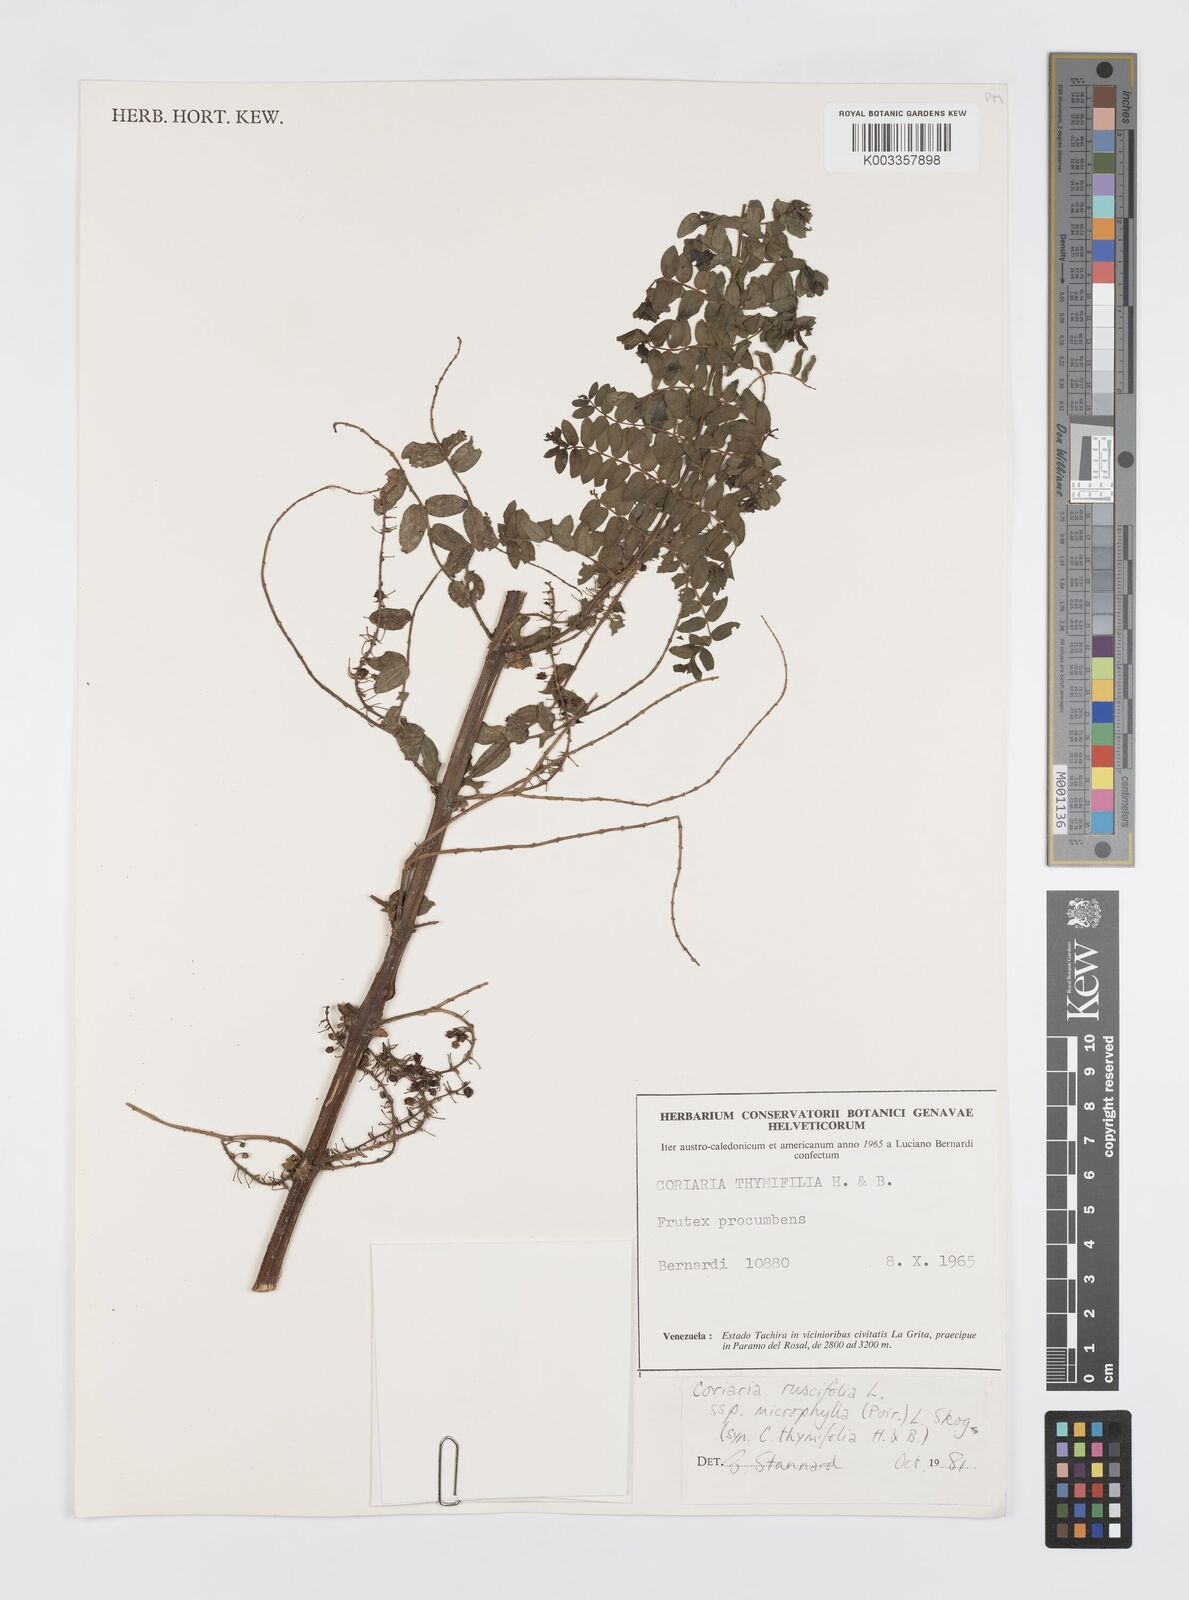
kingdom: Plantae
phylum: Tracheophyta
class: Magnoliopsida
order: Cucurbitales
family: Coriariaceae
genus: Coriaria
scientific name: Coriaria microphylla
